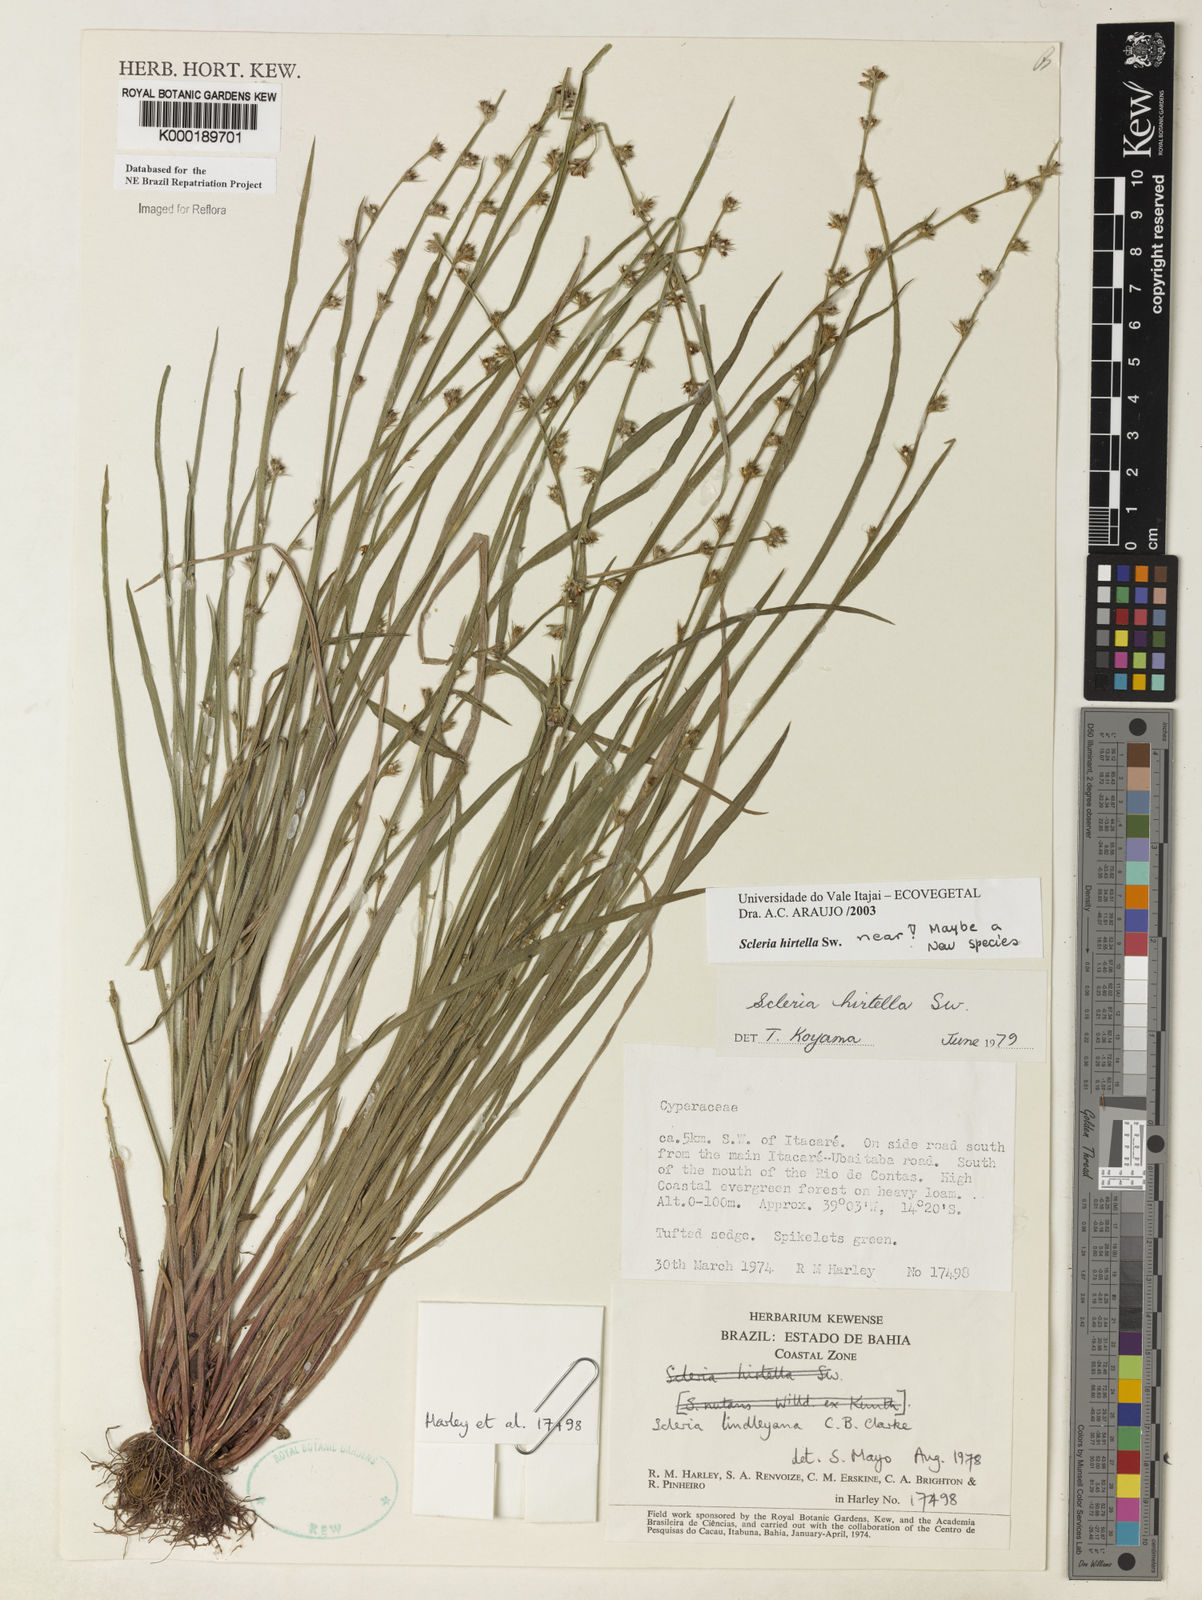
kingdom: Plantae
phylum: Tracheophyta
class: Liliopsida
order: Poales
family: Cyperaceae
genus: Scleria
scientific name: Scleria hirtella
